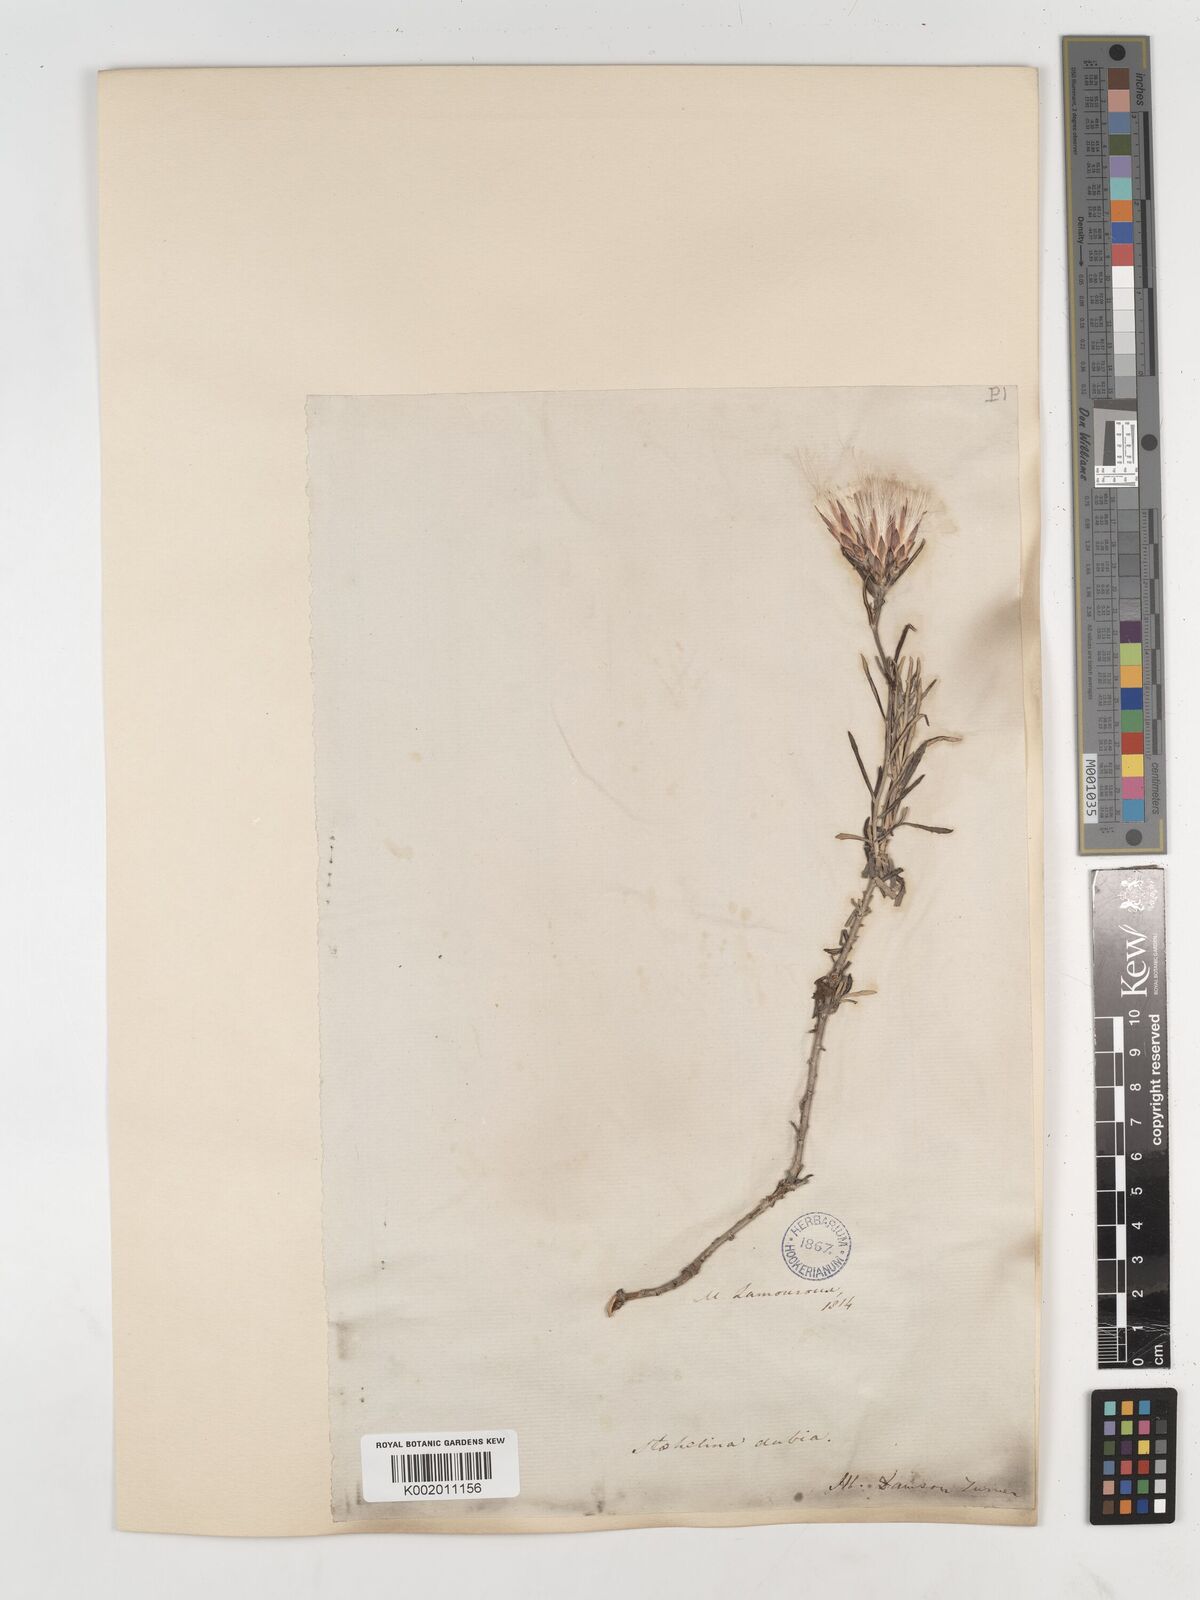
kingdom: Plantae
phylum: Tracheophyta
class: Magnoliopsida
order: Asterales
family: Asteraceae
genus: Staehelina
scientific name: Staehelina dubia
